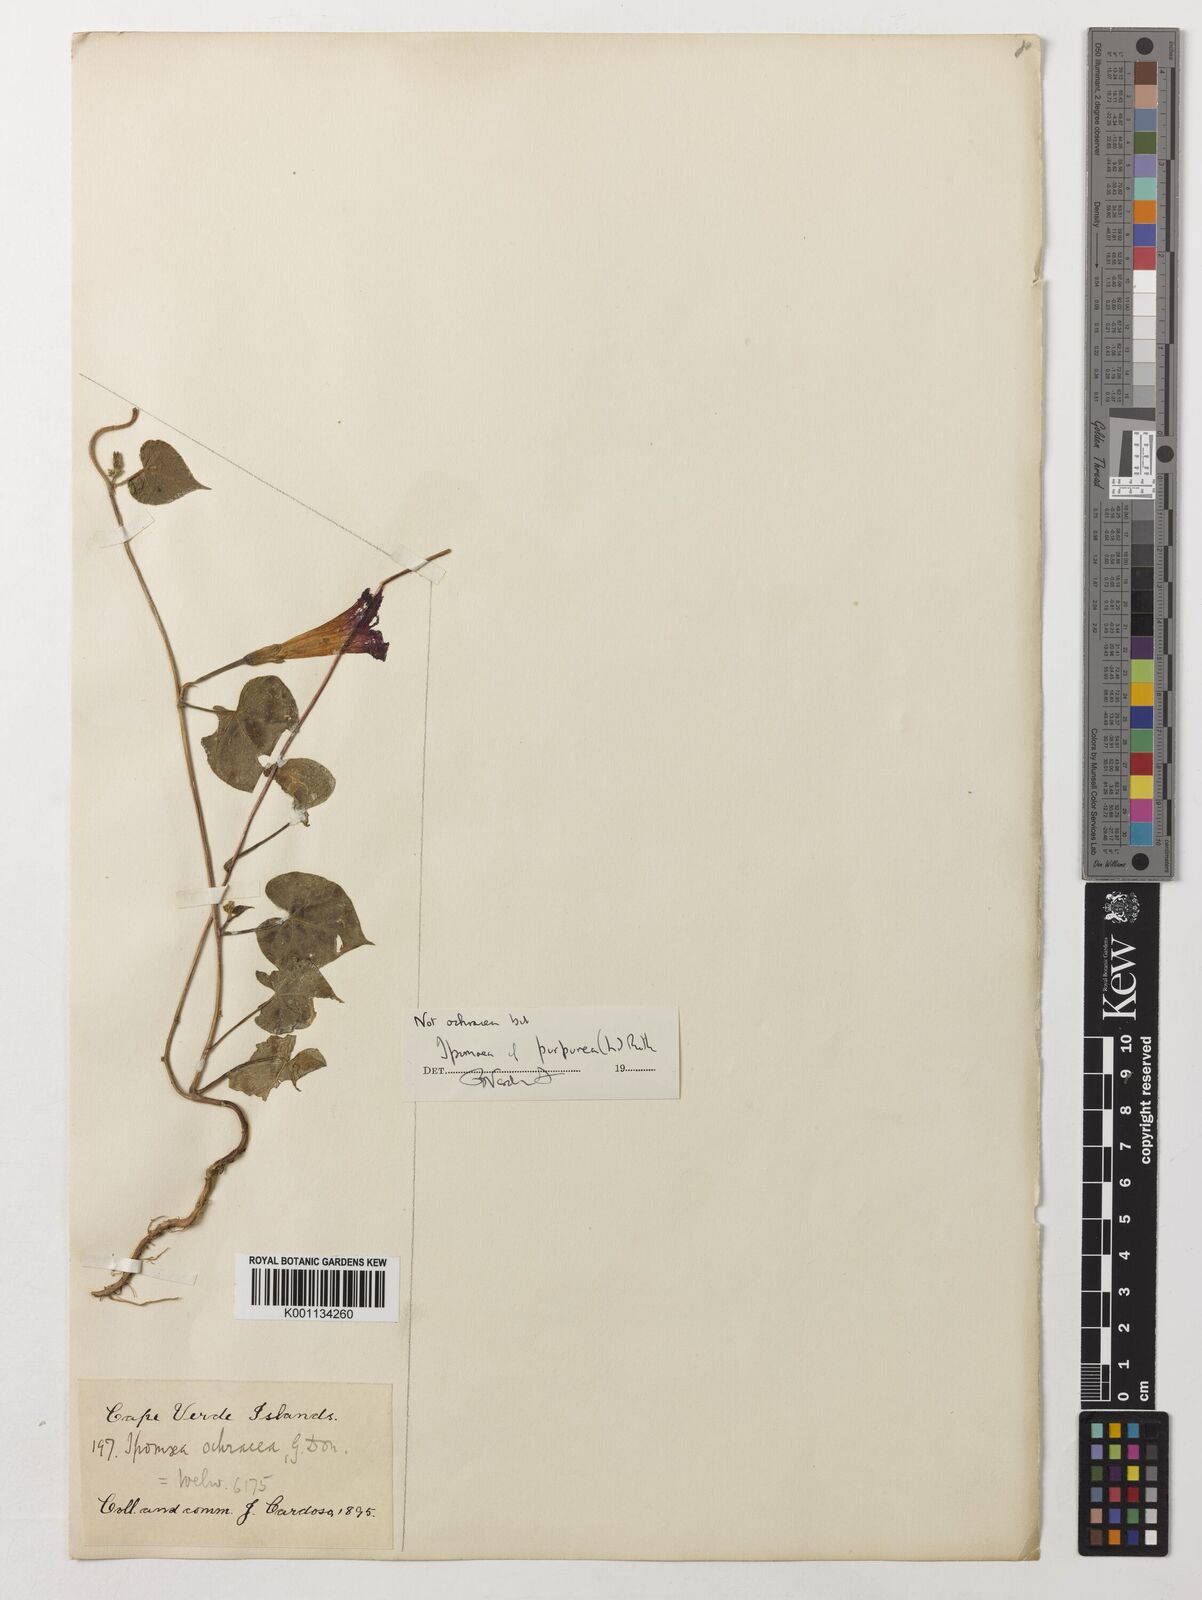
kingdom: Plantae
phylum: Tracheophyta
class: Magnoliopsida
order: Solanales
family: Convolvulaceae
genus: Ipomoea
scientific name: Ipomoea purpurea
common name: Common morning-glory
